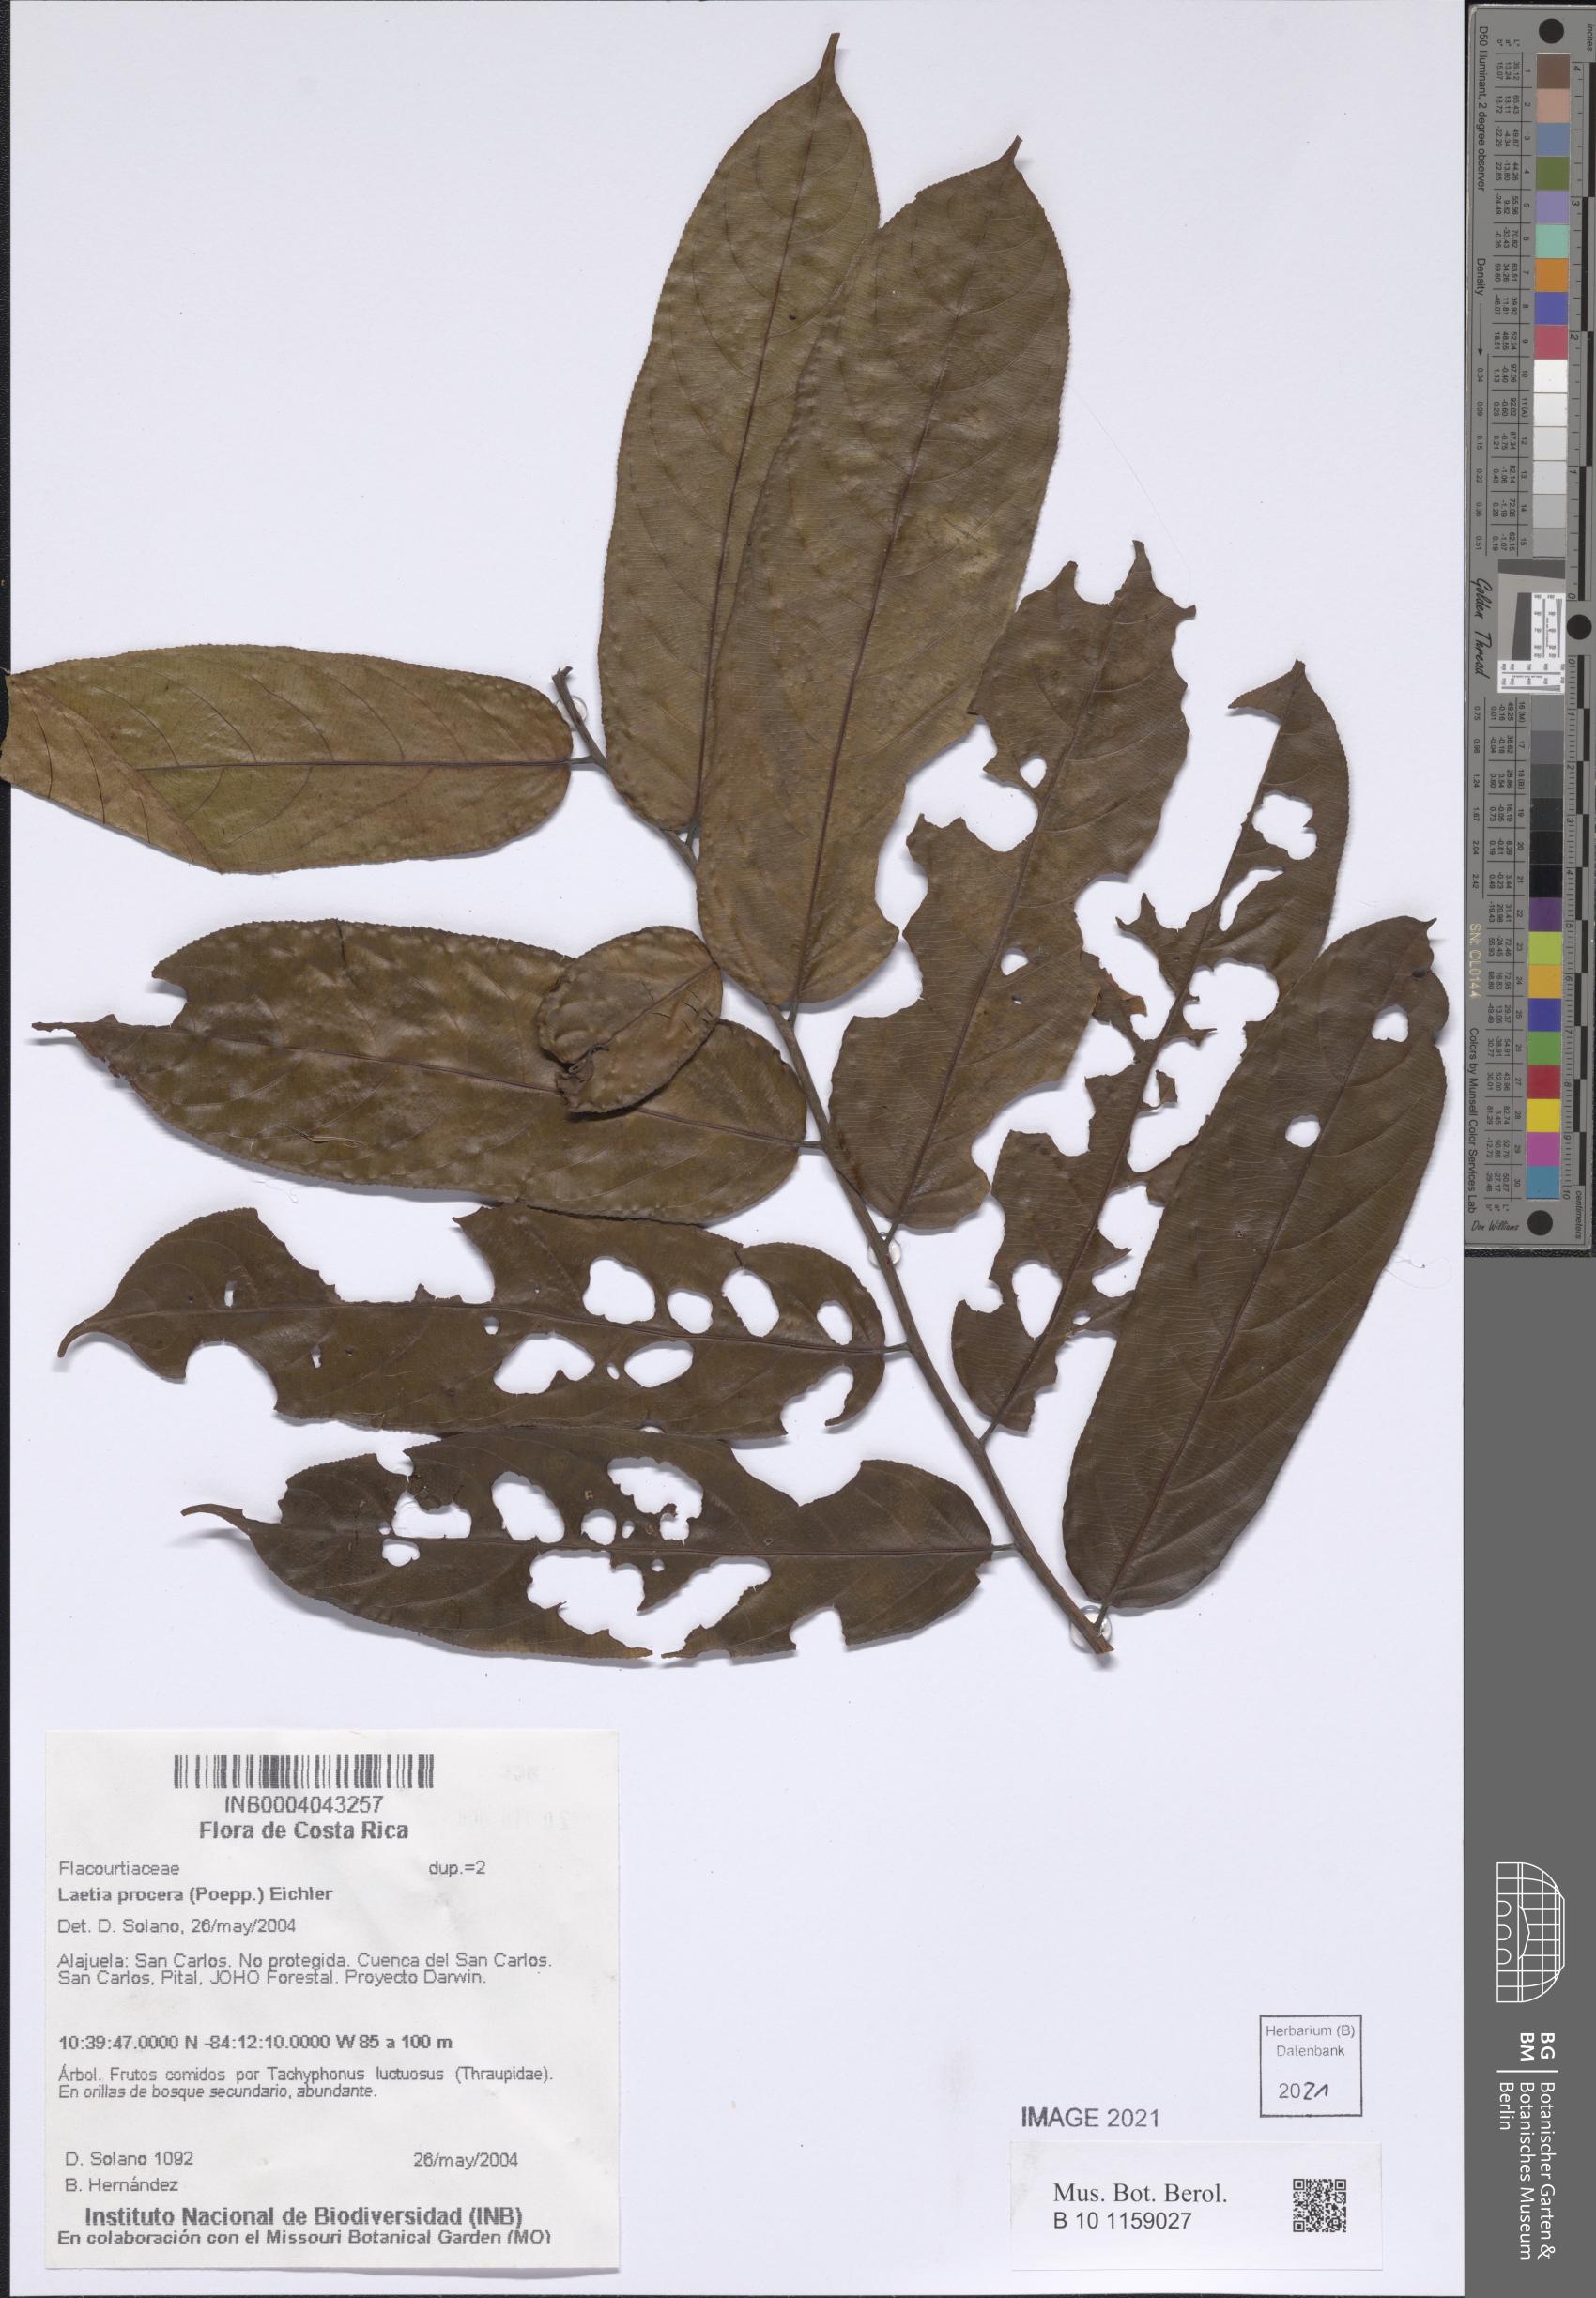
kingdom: Plantae
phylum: Tracheophyta
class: Magnoliopsida
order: Malpighiales
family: Salicaceae
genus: Casearia
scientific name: Casearia bicolor
